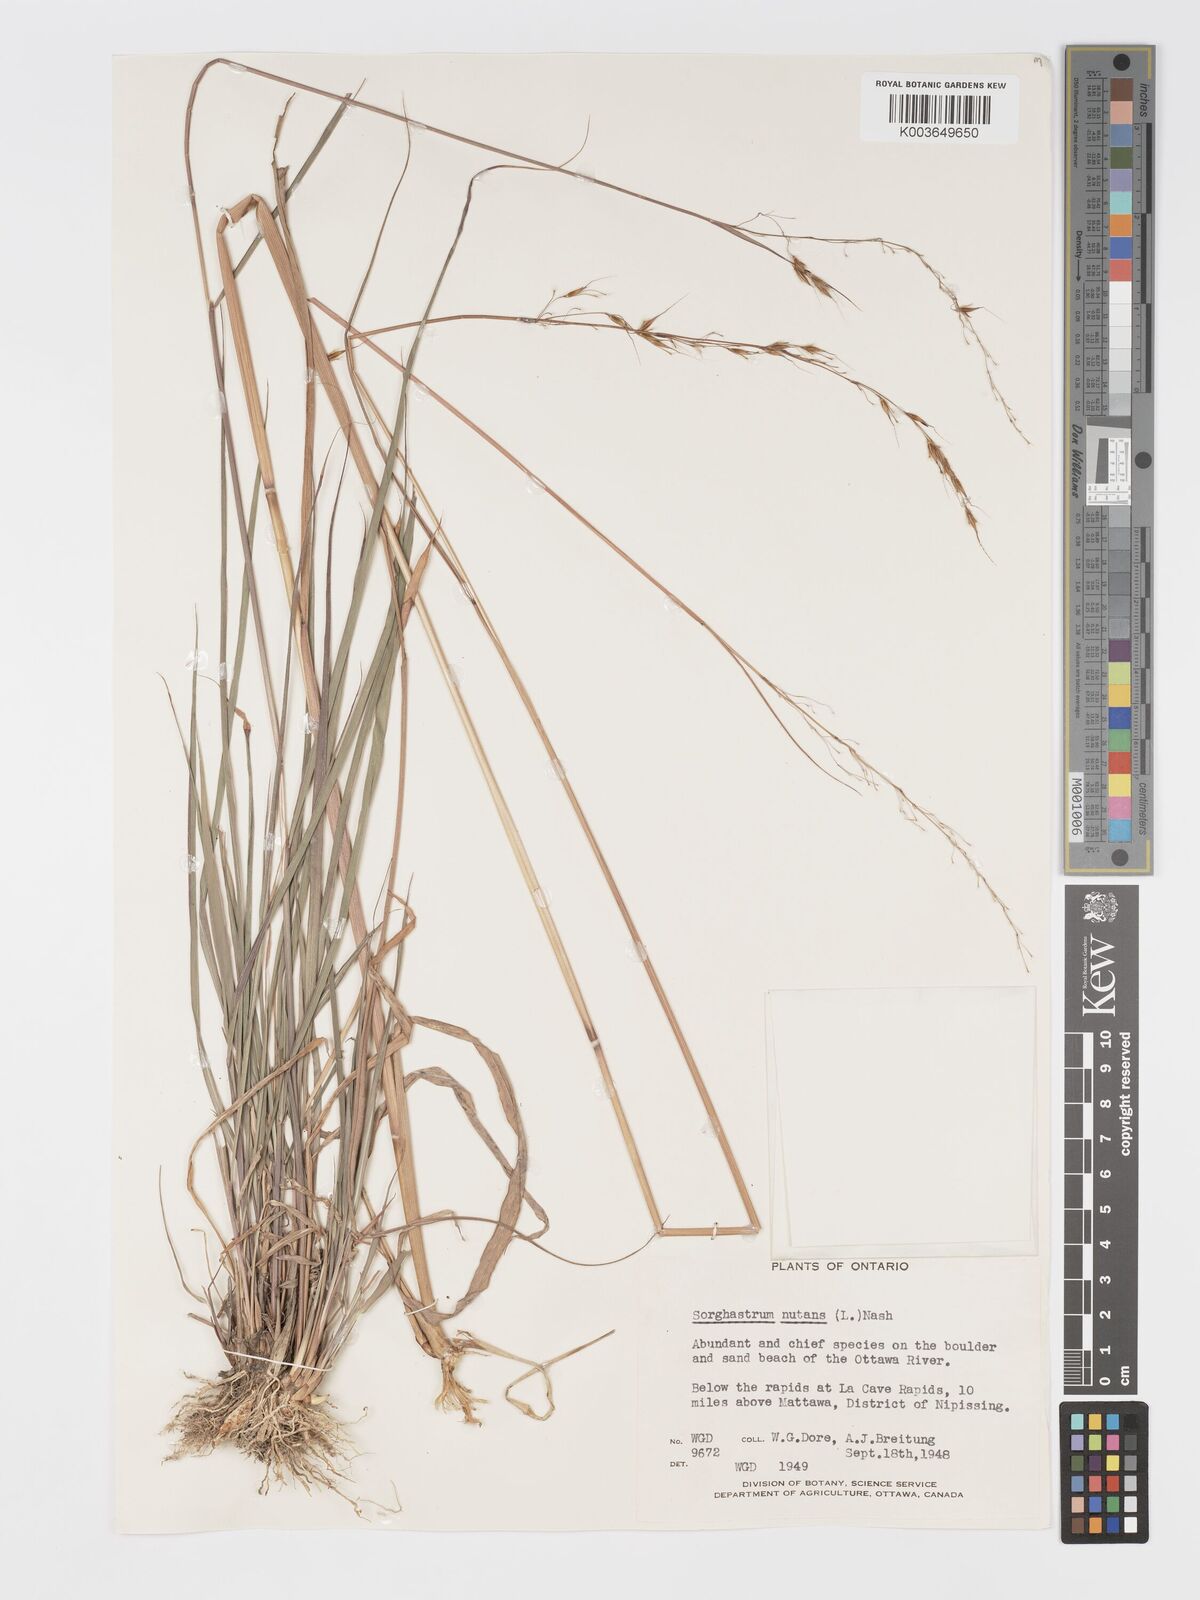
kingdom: Plantae
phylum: Tracheophyta
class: Liliopsida
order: Poales
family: Poaceae
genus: Sorghastrum
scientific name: Sorghastrum nutans
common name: Indian grass
